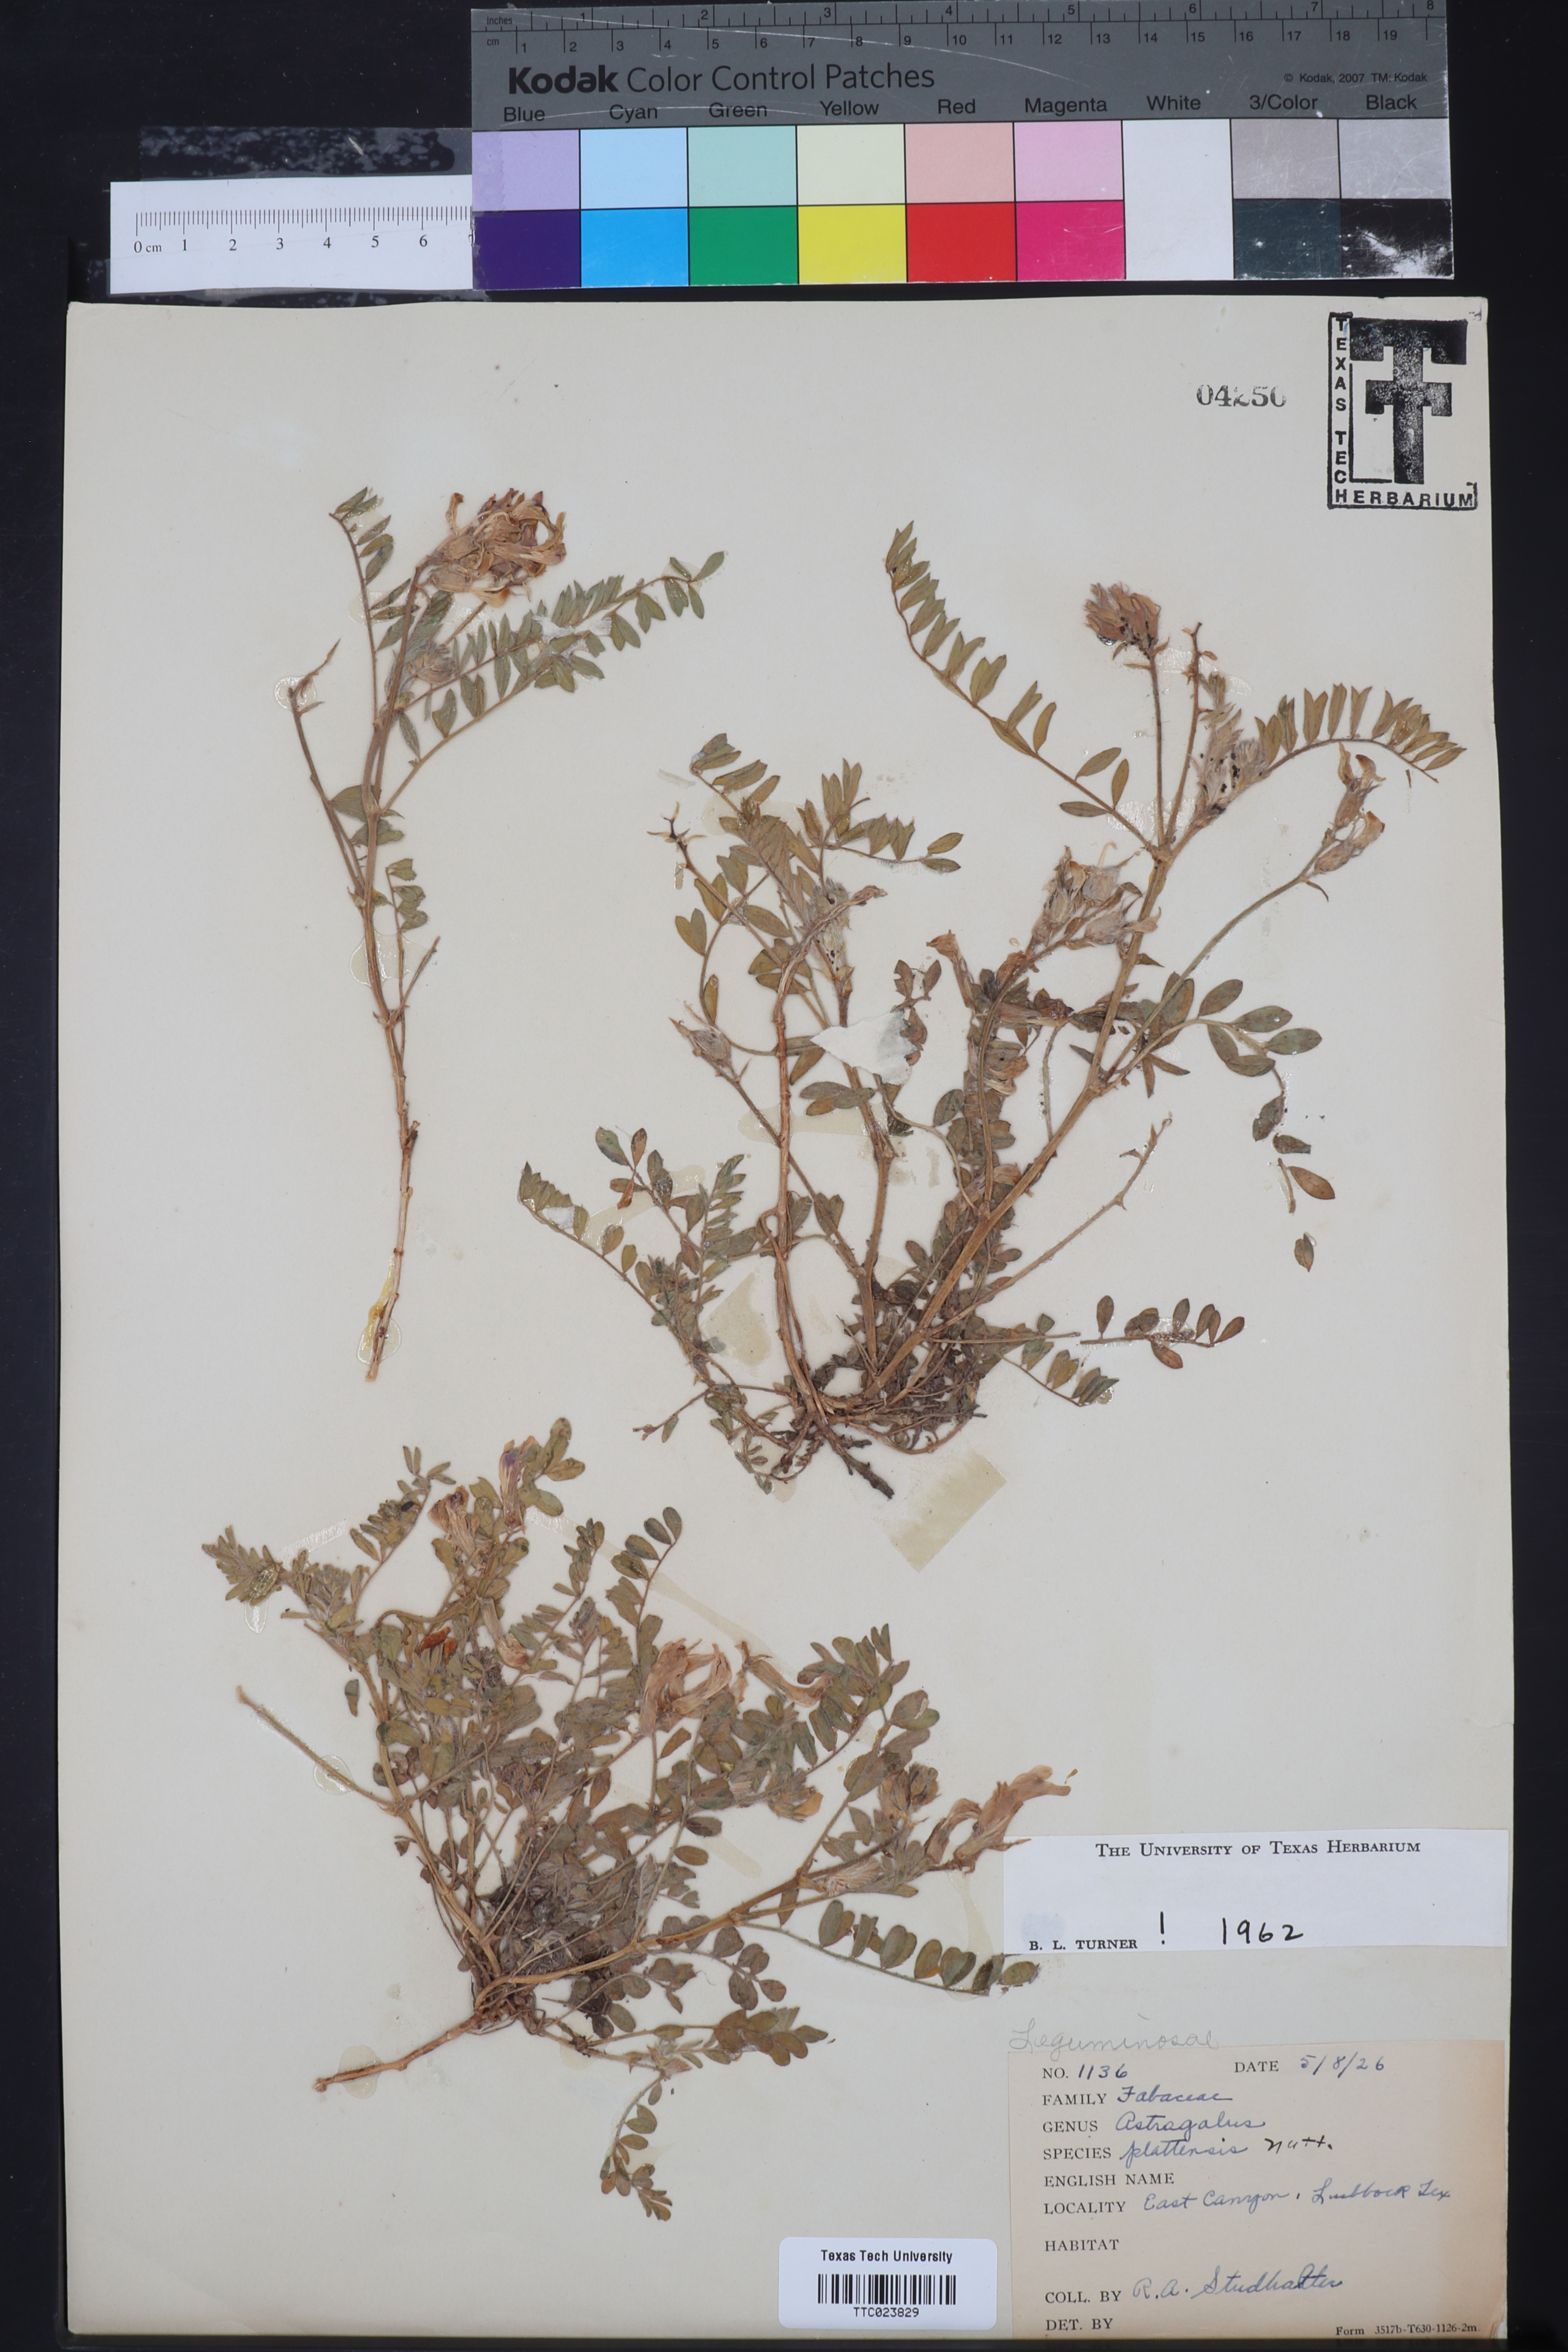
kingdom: Plantae
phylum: Tracheophyta
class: Magnoliopsida
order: Fabales
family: Fabaceae
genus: Astragalus
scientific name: Astragalus plattensis
